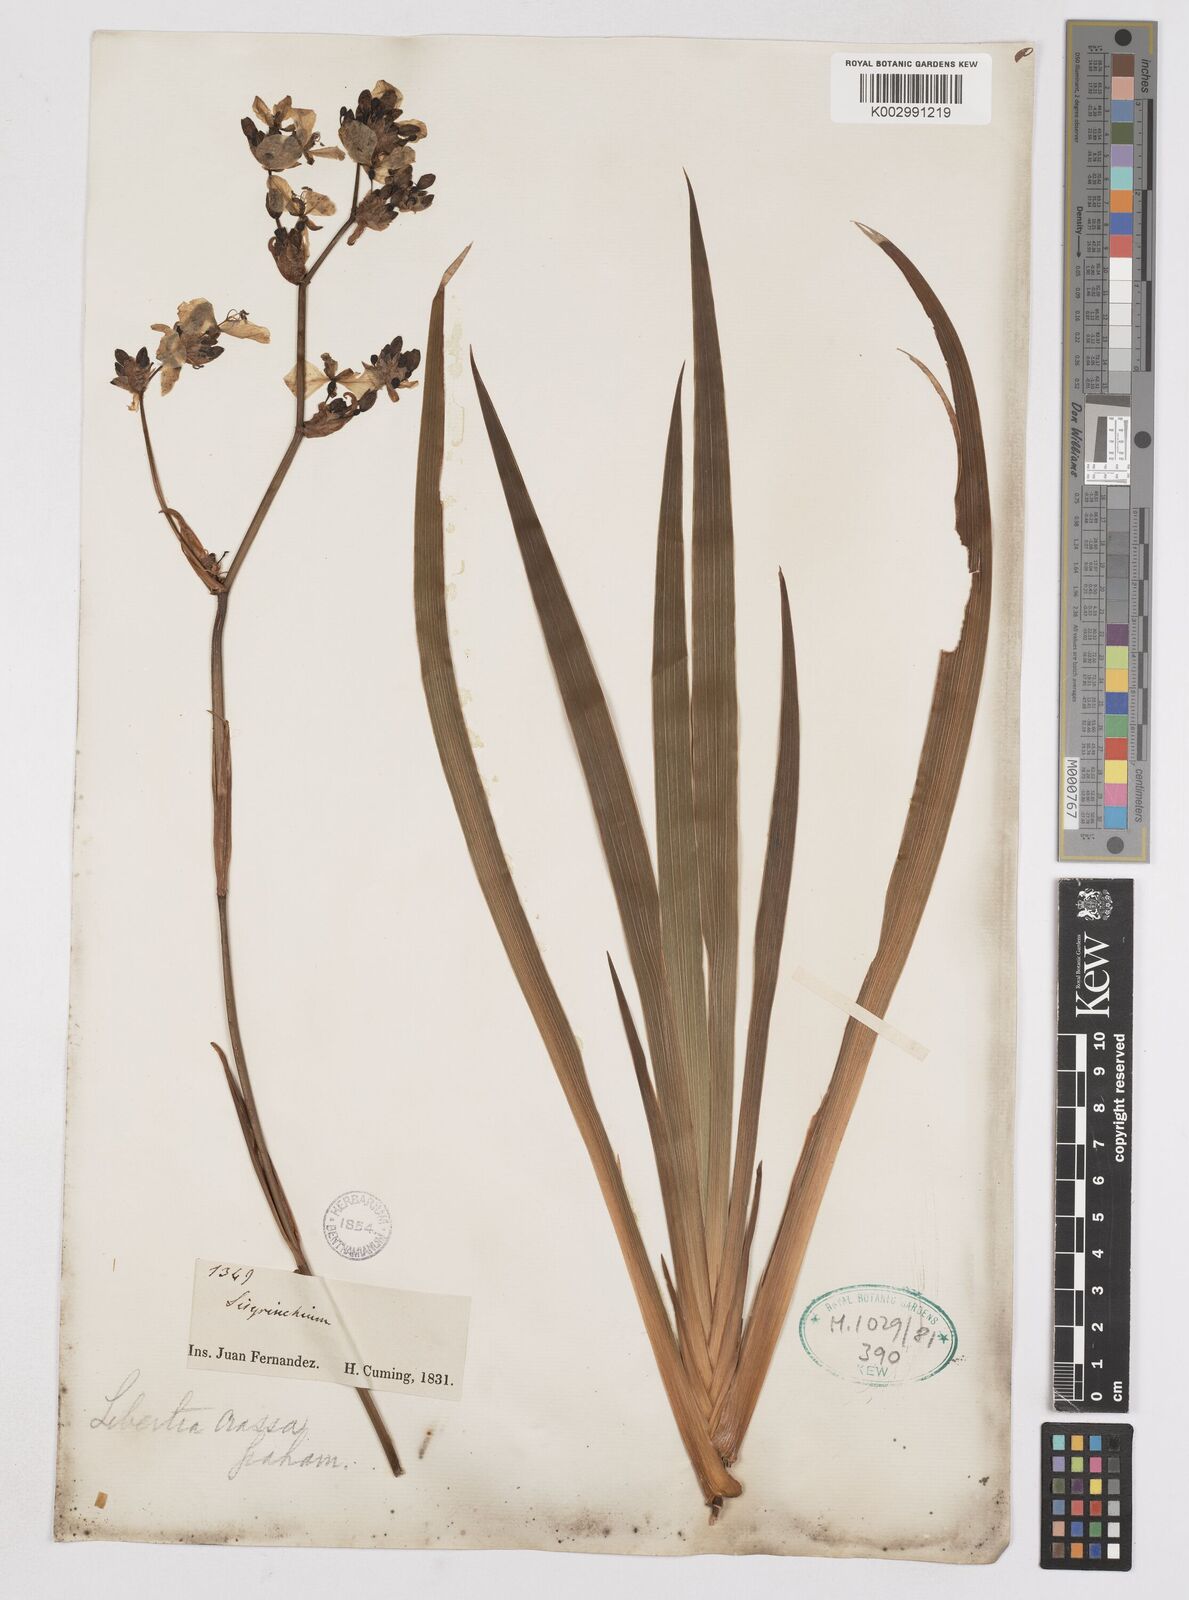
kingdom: Plantae
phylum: Tracheophyta
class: Liliopsida
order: Asparagales
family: Iridaceae
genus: Libertia
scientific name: Libertia chilensis
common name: Satin flower
